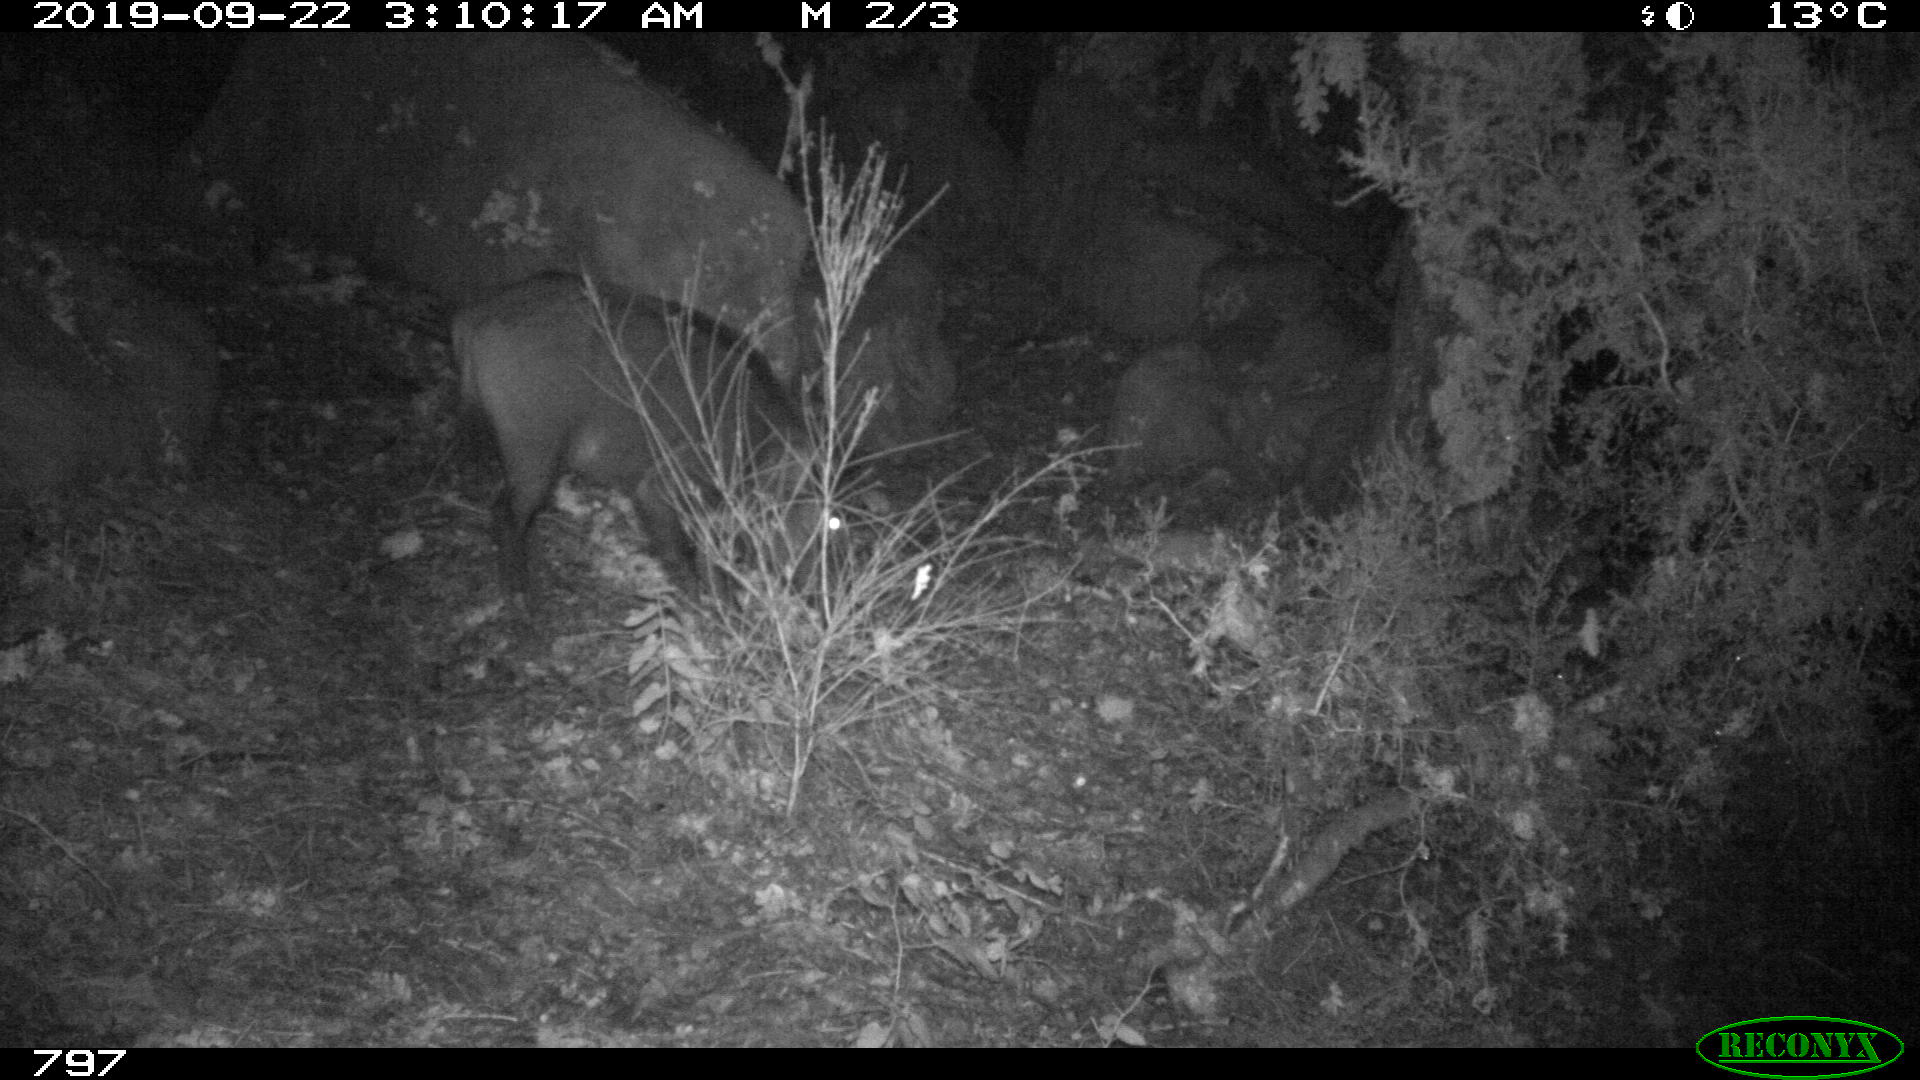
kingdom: Animalia
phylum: Chordata
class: Mammalia
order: Artiodactyla
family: Suidae
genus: Sus
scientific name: Sus scrofa
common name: Wild boar
